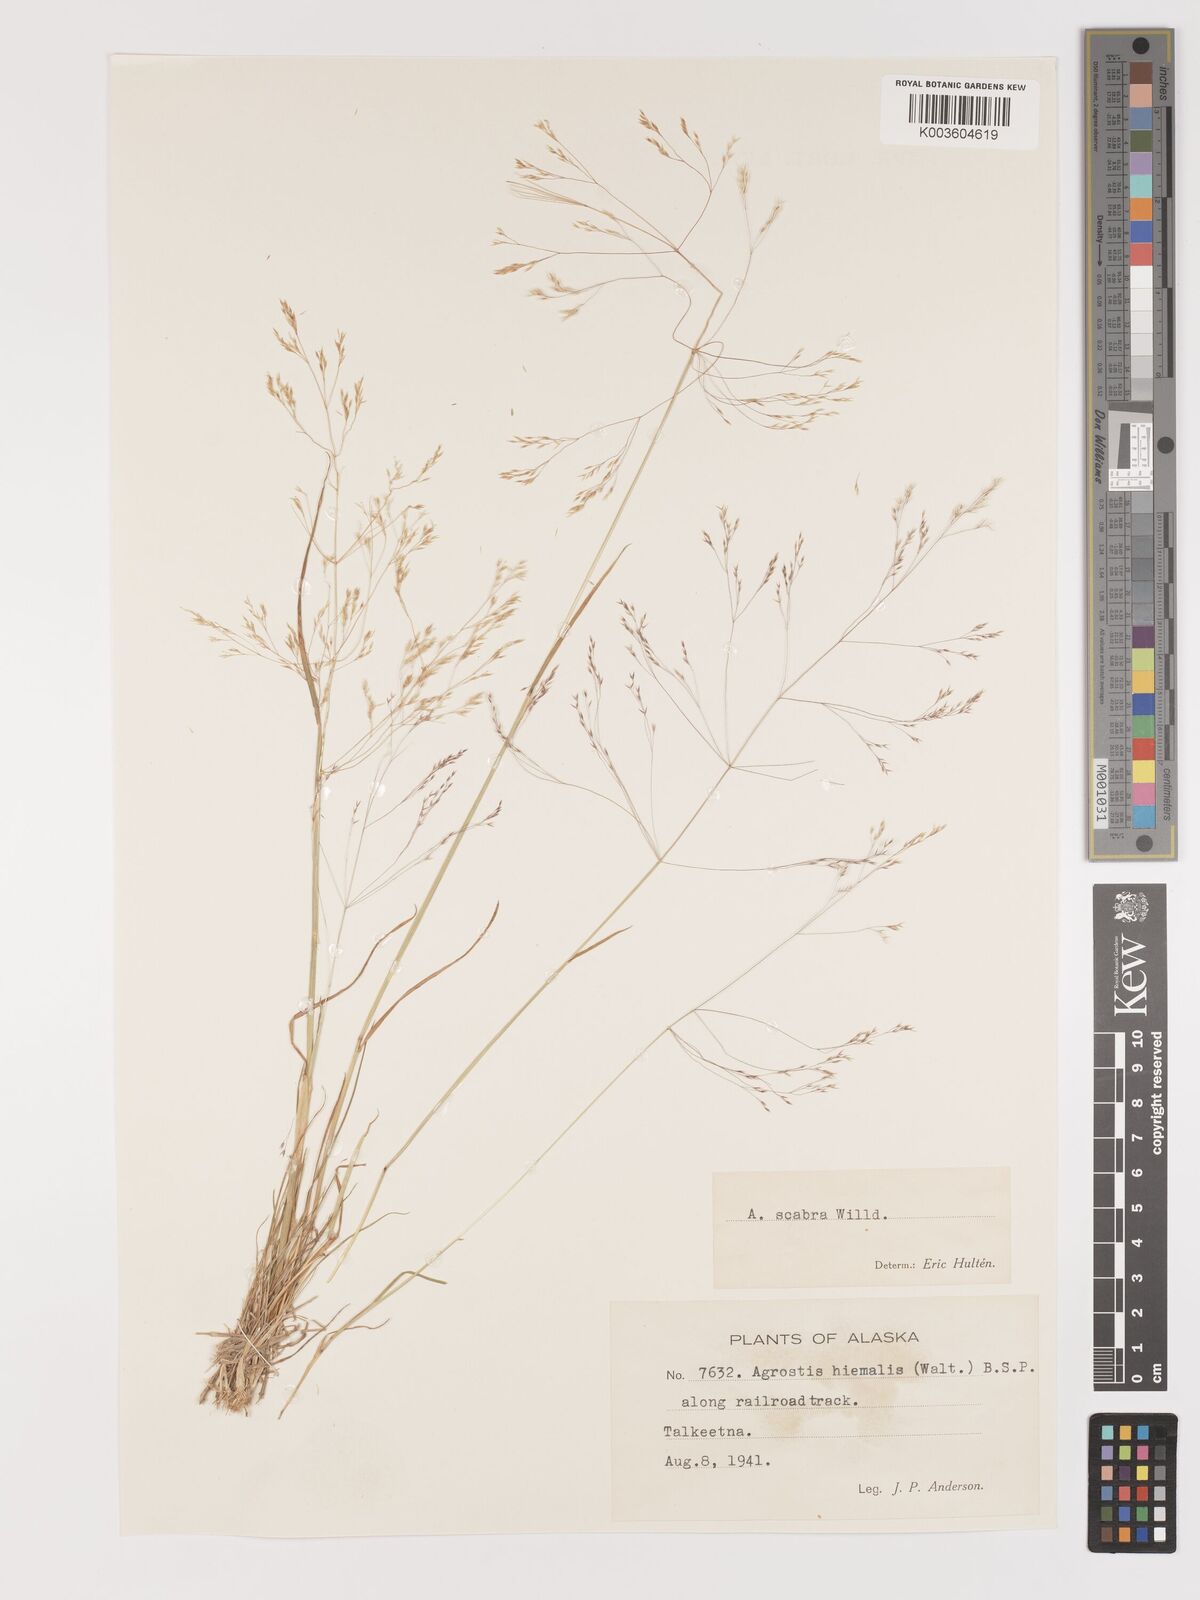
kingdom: Plantae
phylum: Tracheophyta
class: Liliopsida
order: Poales
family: Poaceae
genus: Agrostis
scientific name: Agrostis
